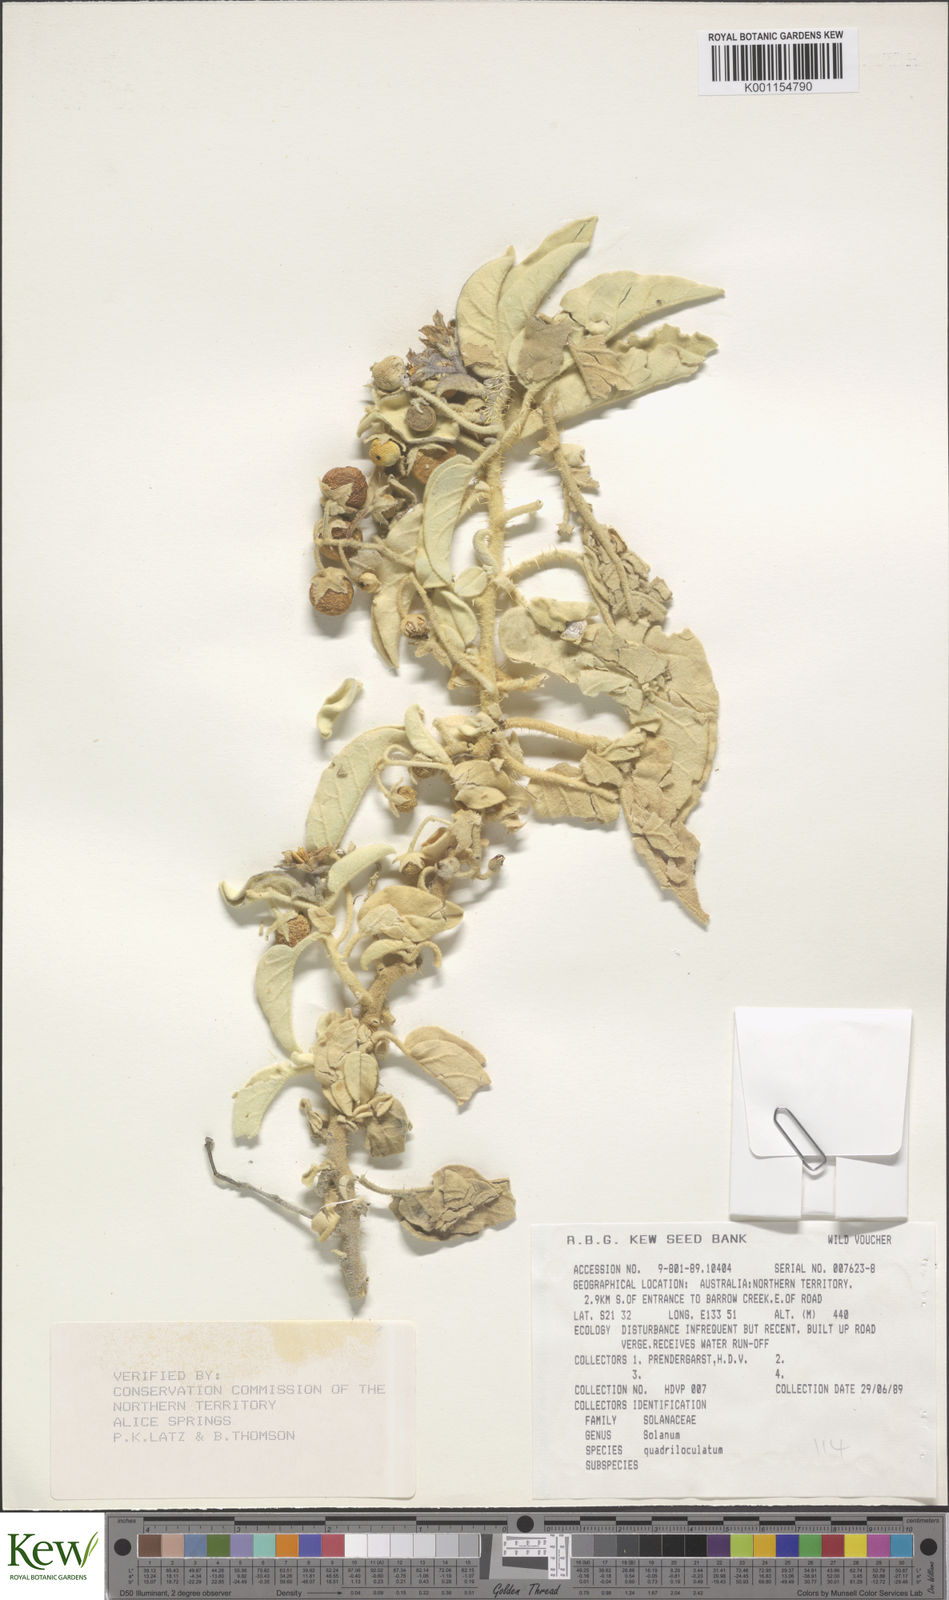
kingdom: Plantae
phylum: Tracheophyta
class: Magnoliopsida
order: Solanales
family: Solanaceae
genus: Solanum
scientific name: Solanum quadriloculatum
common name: Wild tomato
